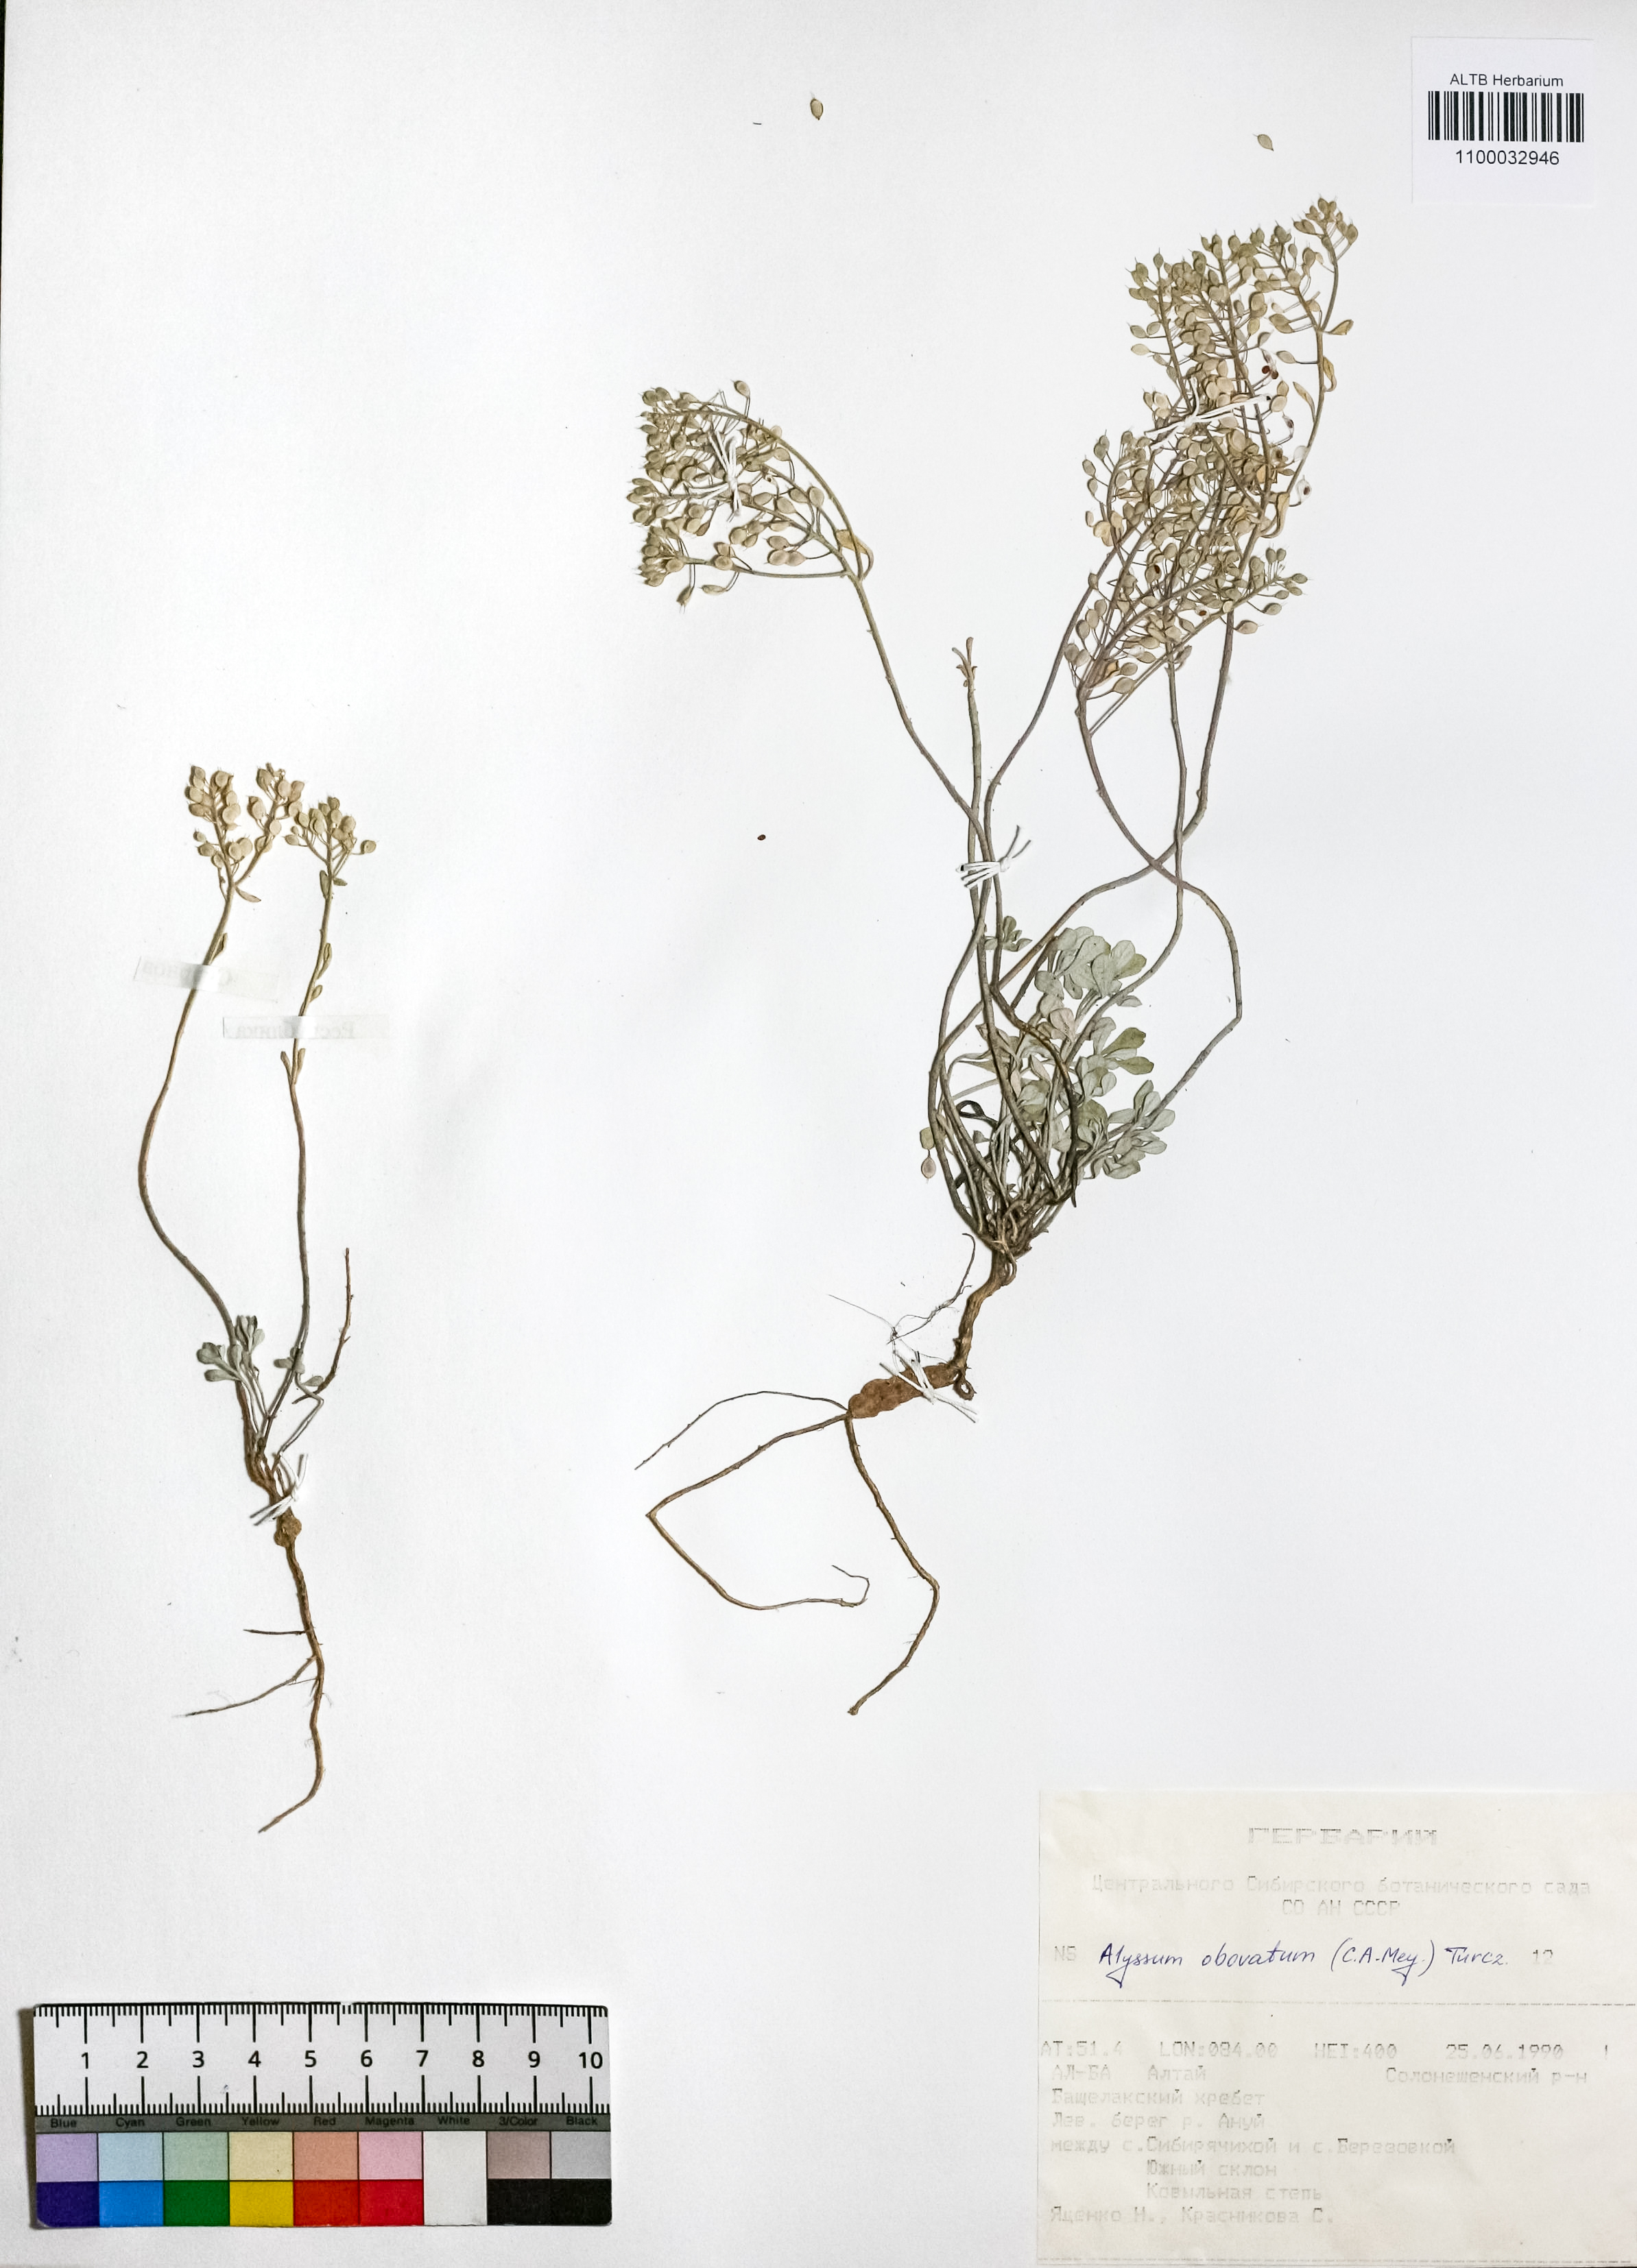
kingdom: Plantae
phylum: Tracheophyta
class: Magnoliopsida
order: Brassicales
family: Brassicaceae
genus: Odontarrhena
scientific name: Odontarrhena obovata
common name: American alyssum
